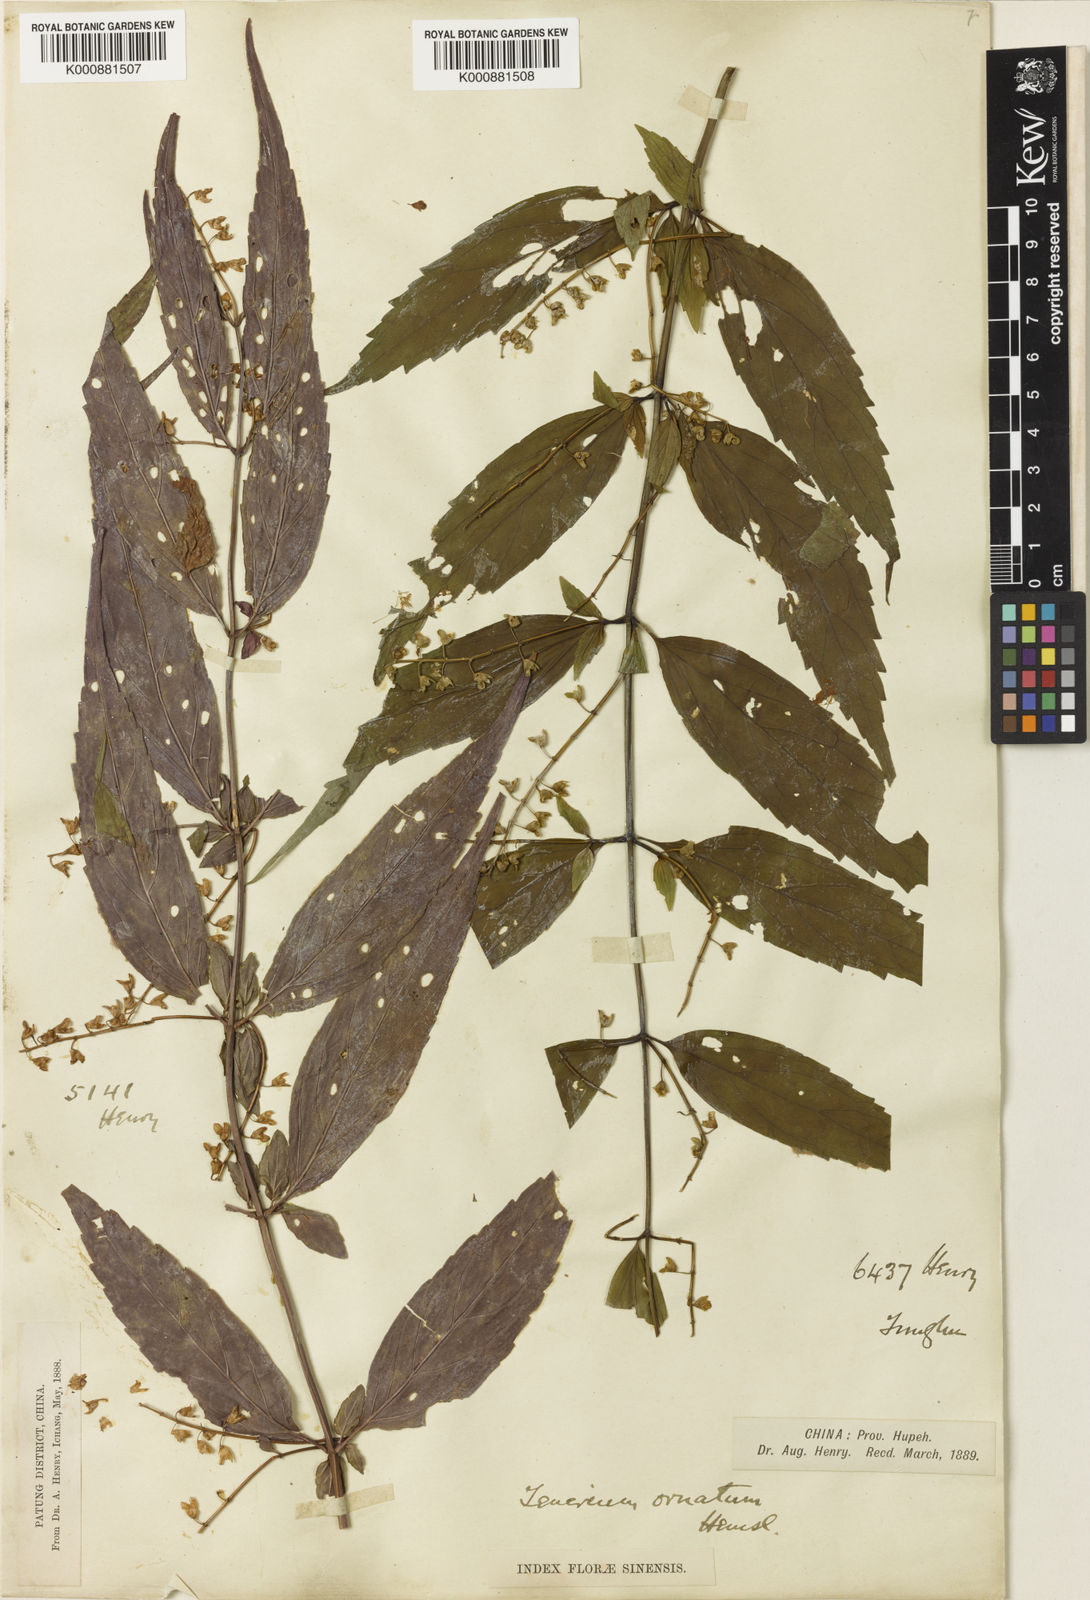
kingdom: Plantae
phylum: Tracheophyta
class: Magnoliopsida
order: Lamiales
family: Lamiaceae
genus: Teucrium
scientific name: Teucrium ornatum
